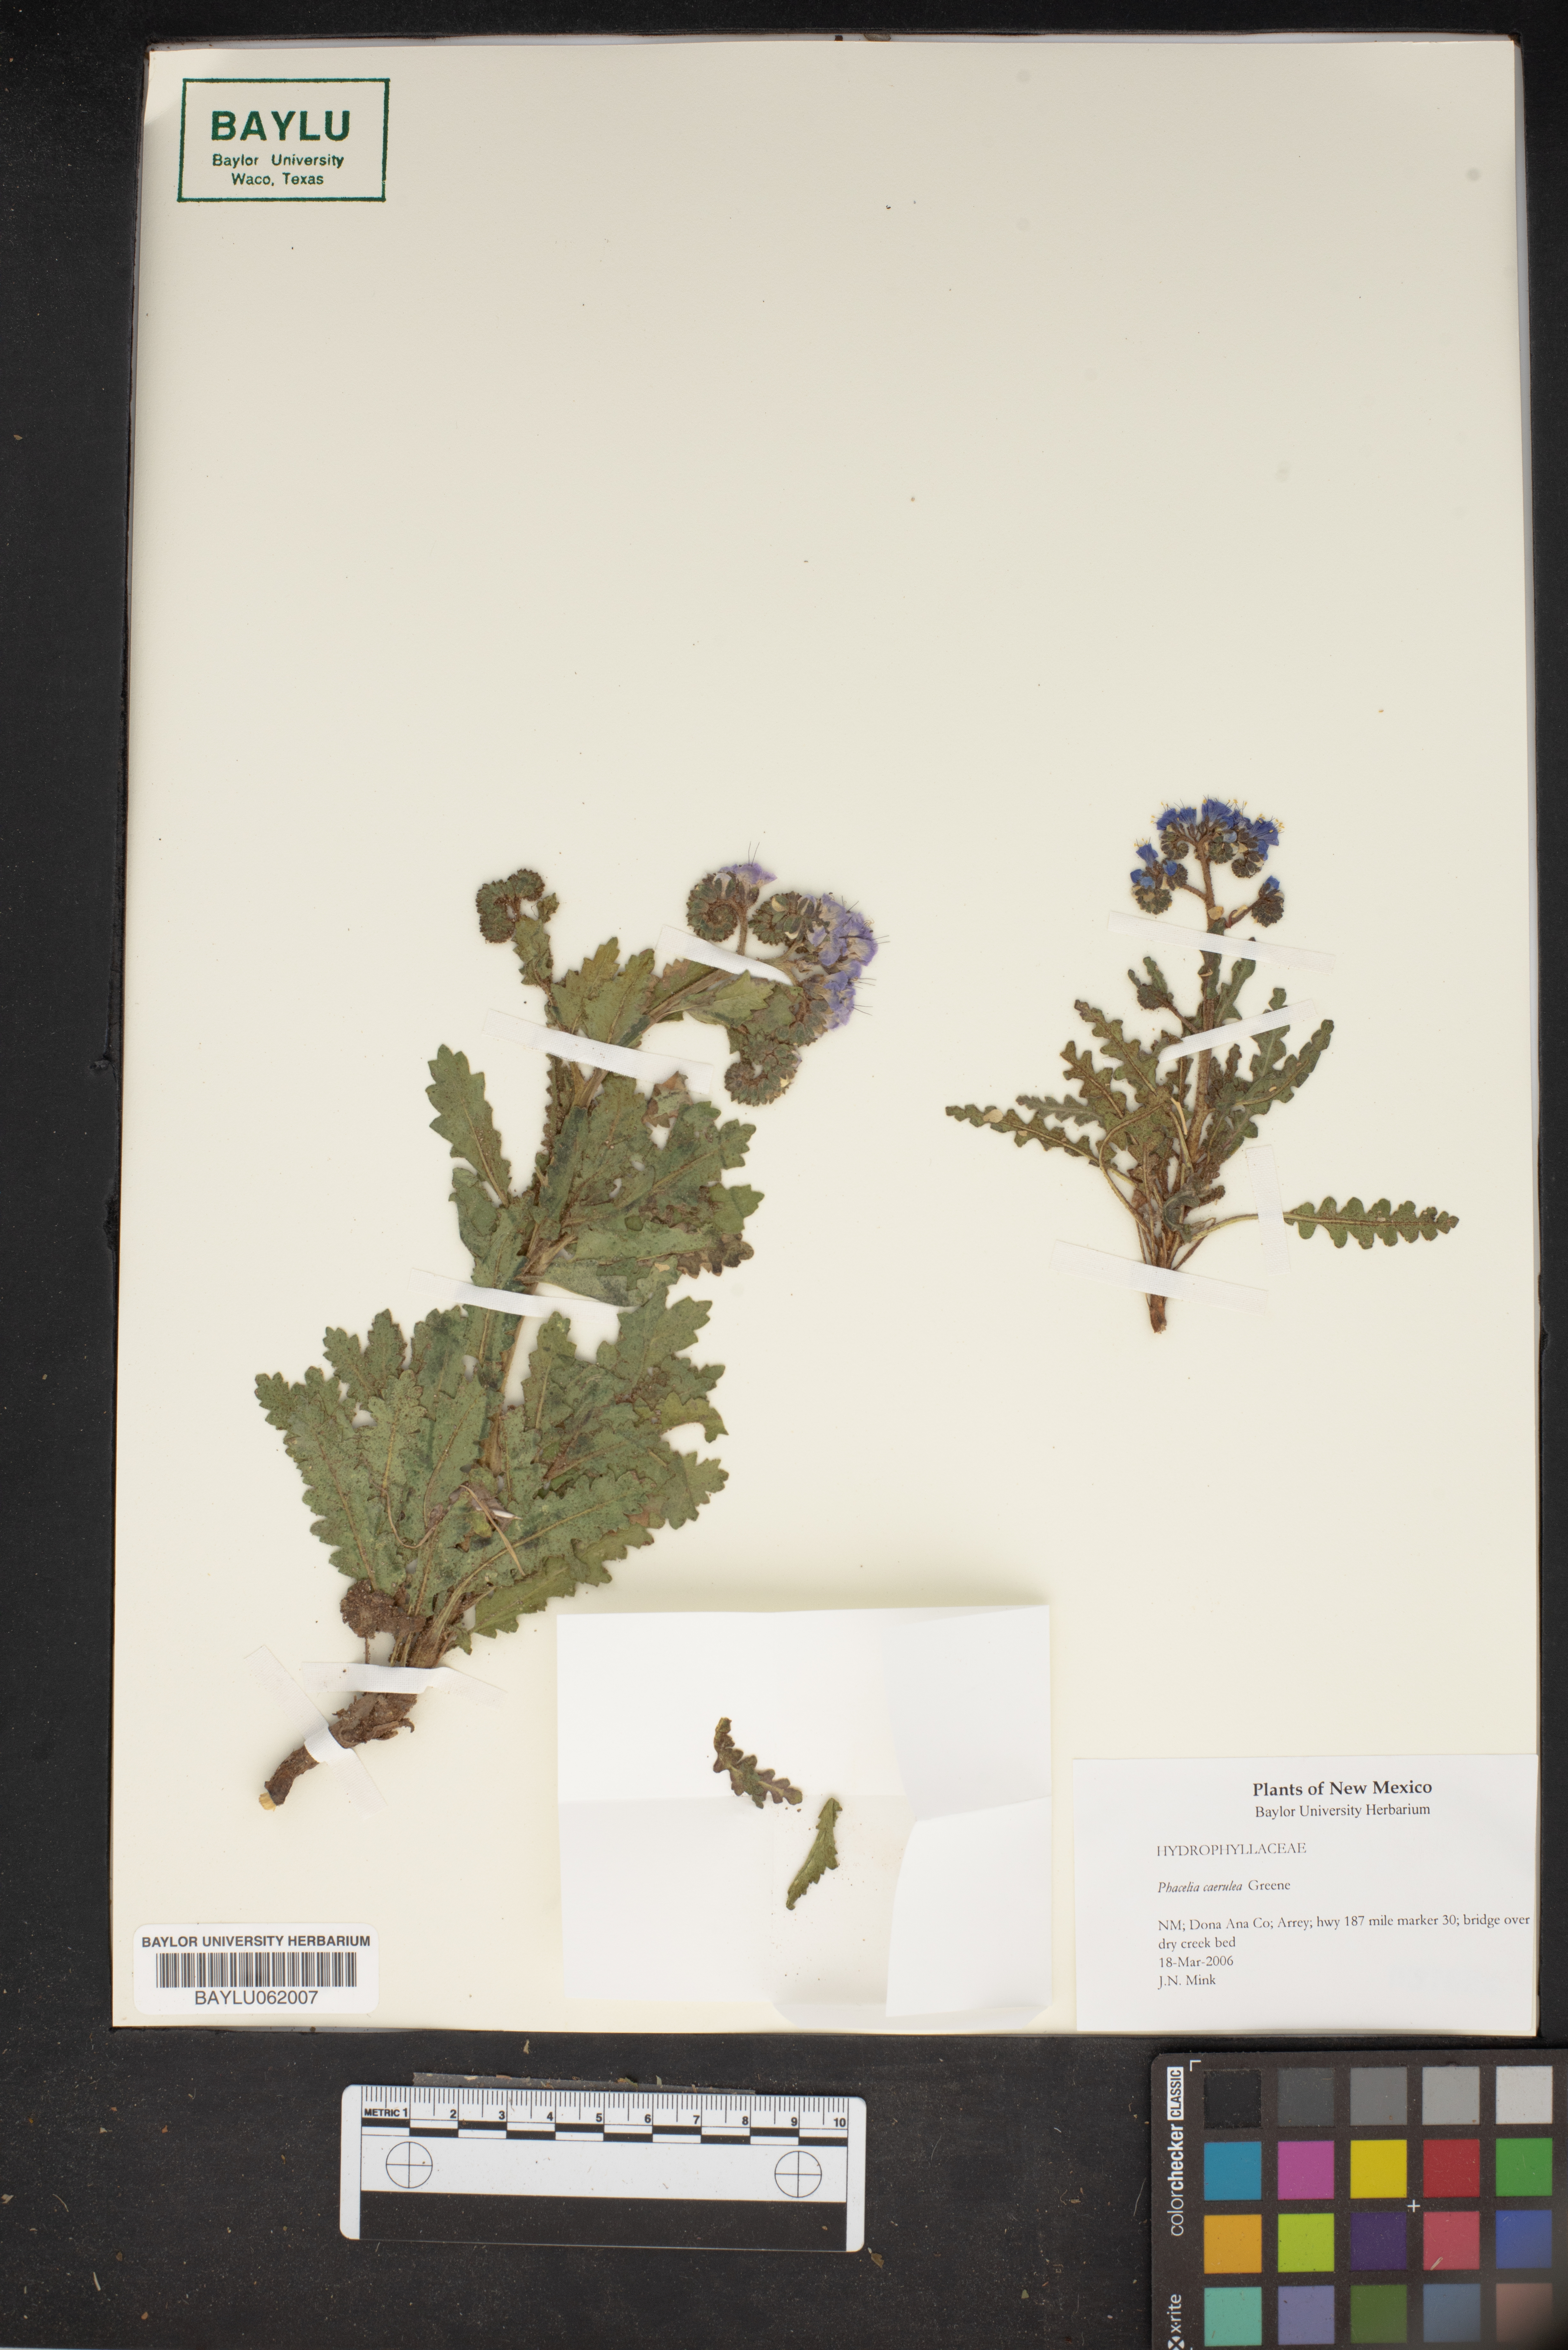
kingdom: Plantae
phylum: Tracheophyta
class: Magnoliopsida
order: Boraginales
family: Hydrophyllaceae
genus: Phacelia
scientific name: Phacelia caerulea
